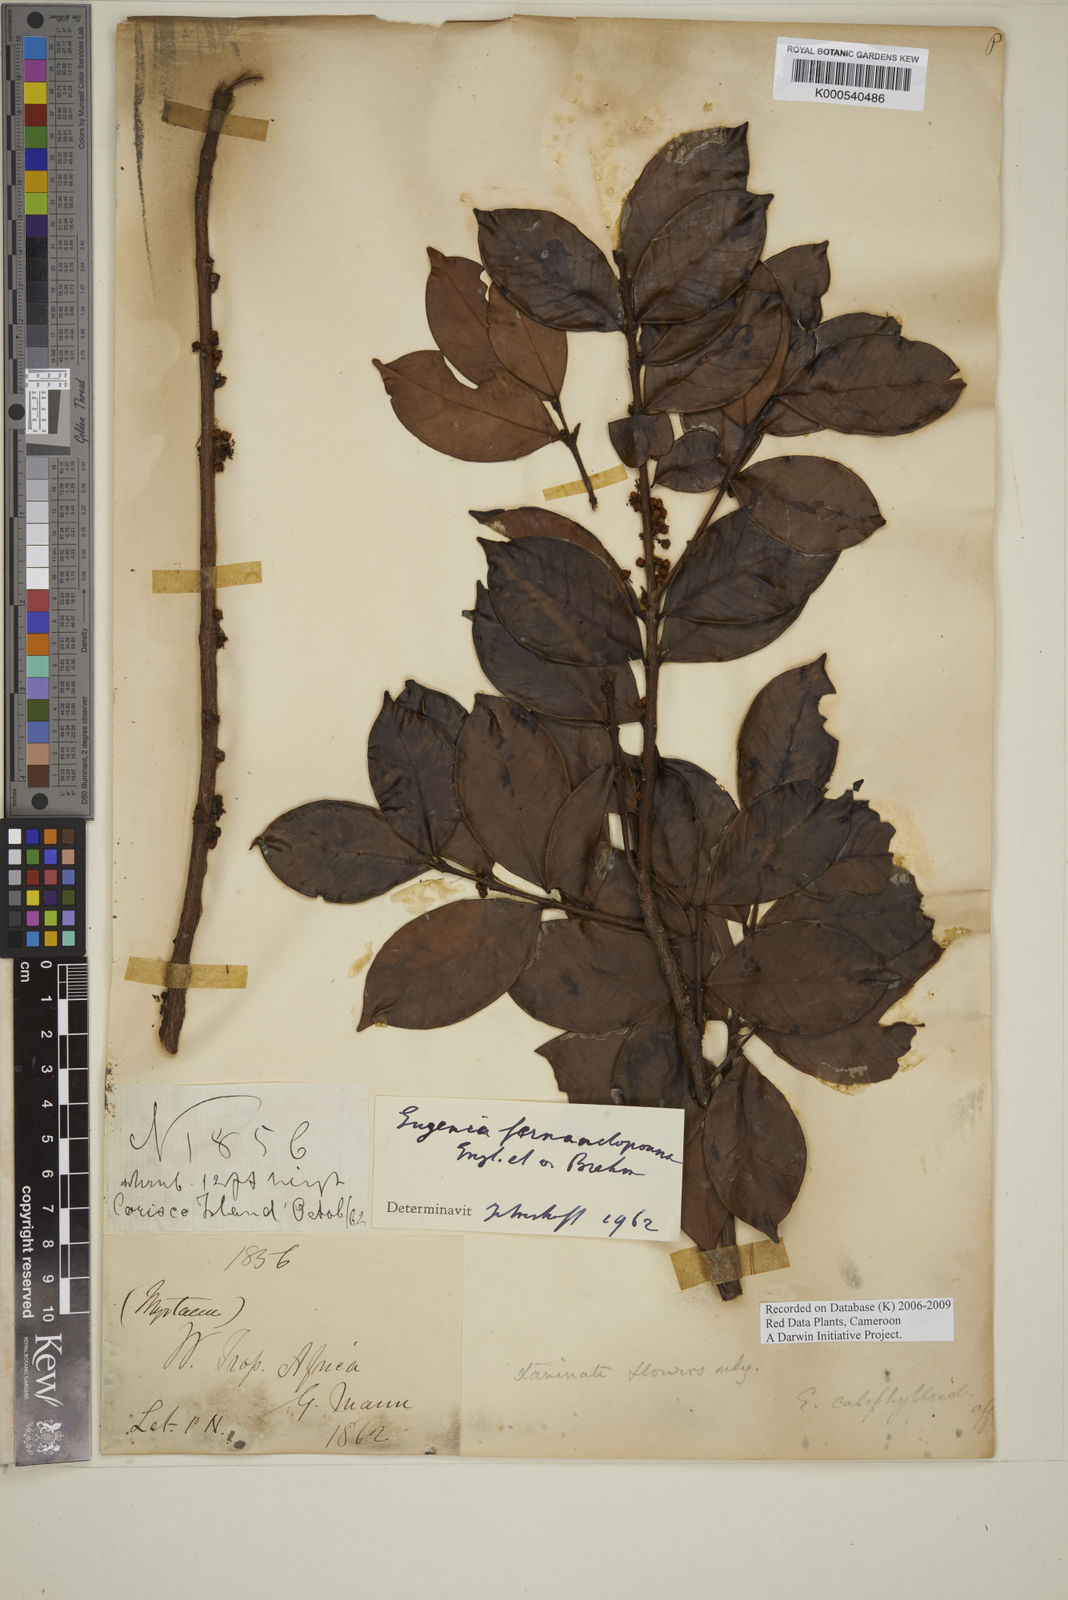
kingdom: Plantae
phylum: Tracheophyta
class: Magnoliopsida
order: Myrtales
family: Myrtaceae
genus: Eugenia
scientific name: Eugenia fernandopoana
